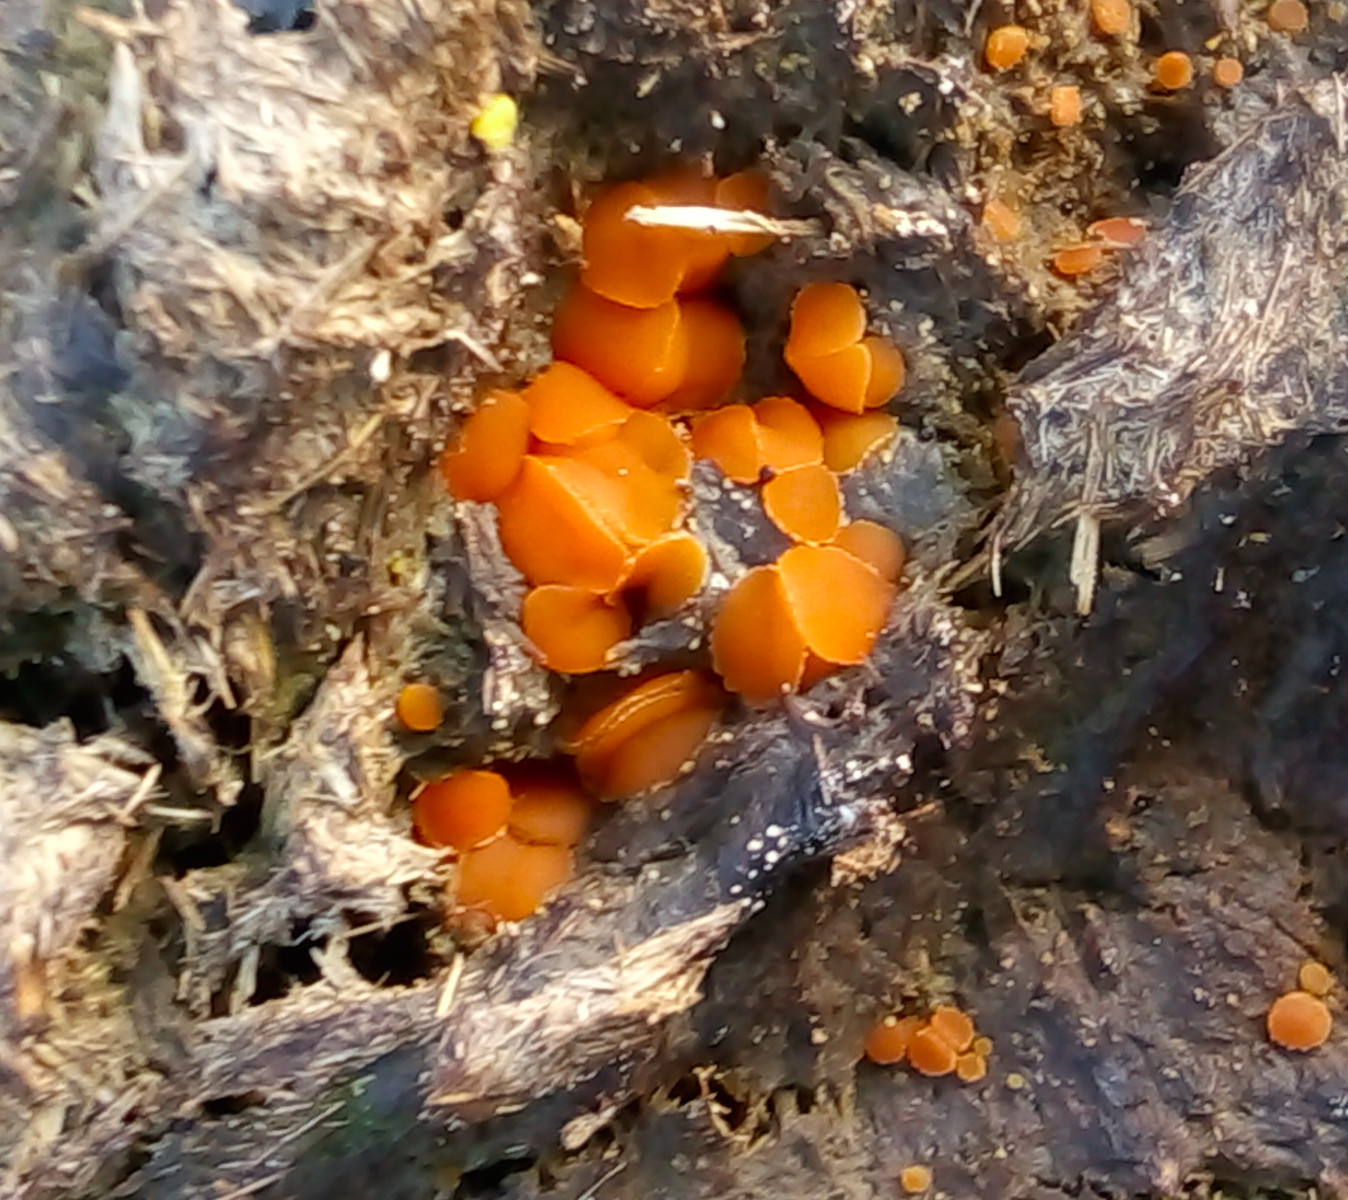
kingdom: Fungi
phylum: Ascomycota
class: Pezizomycetes
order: Pezizales
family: Pyronemataceae
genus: Cheilymenia
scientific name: Cheilymenia granulata
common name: møgbæger
